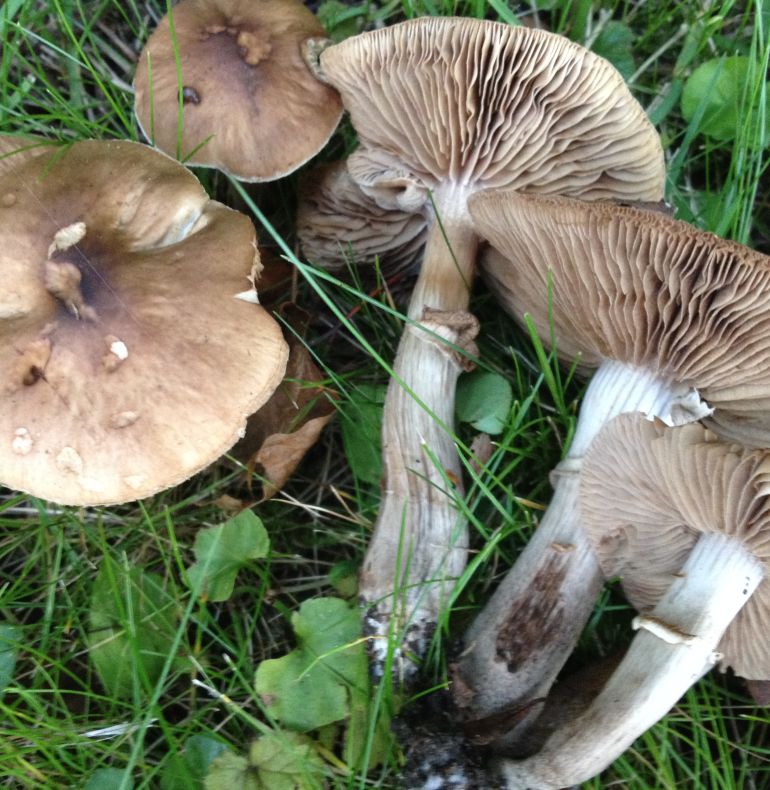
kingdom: Fungi
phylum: Basidiomycota
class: Agaricomycetes
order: Agaricales
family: Tubariaceae
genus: Cyclocybe
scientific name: Cyclocybe erebia
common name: mørk agerhat
